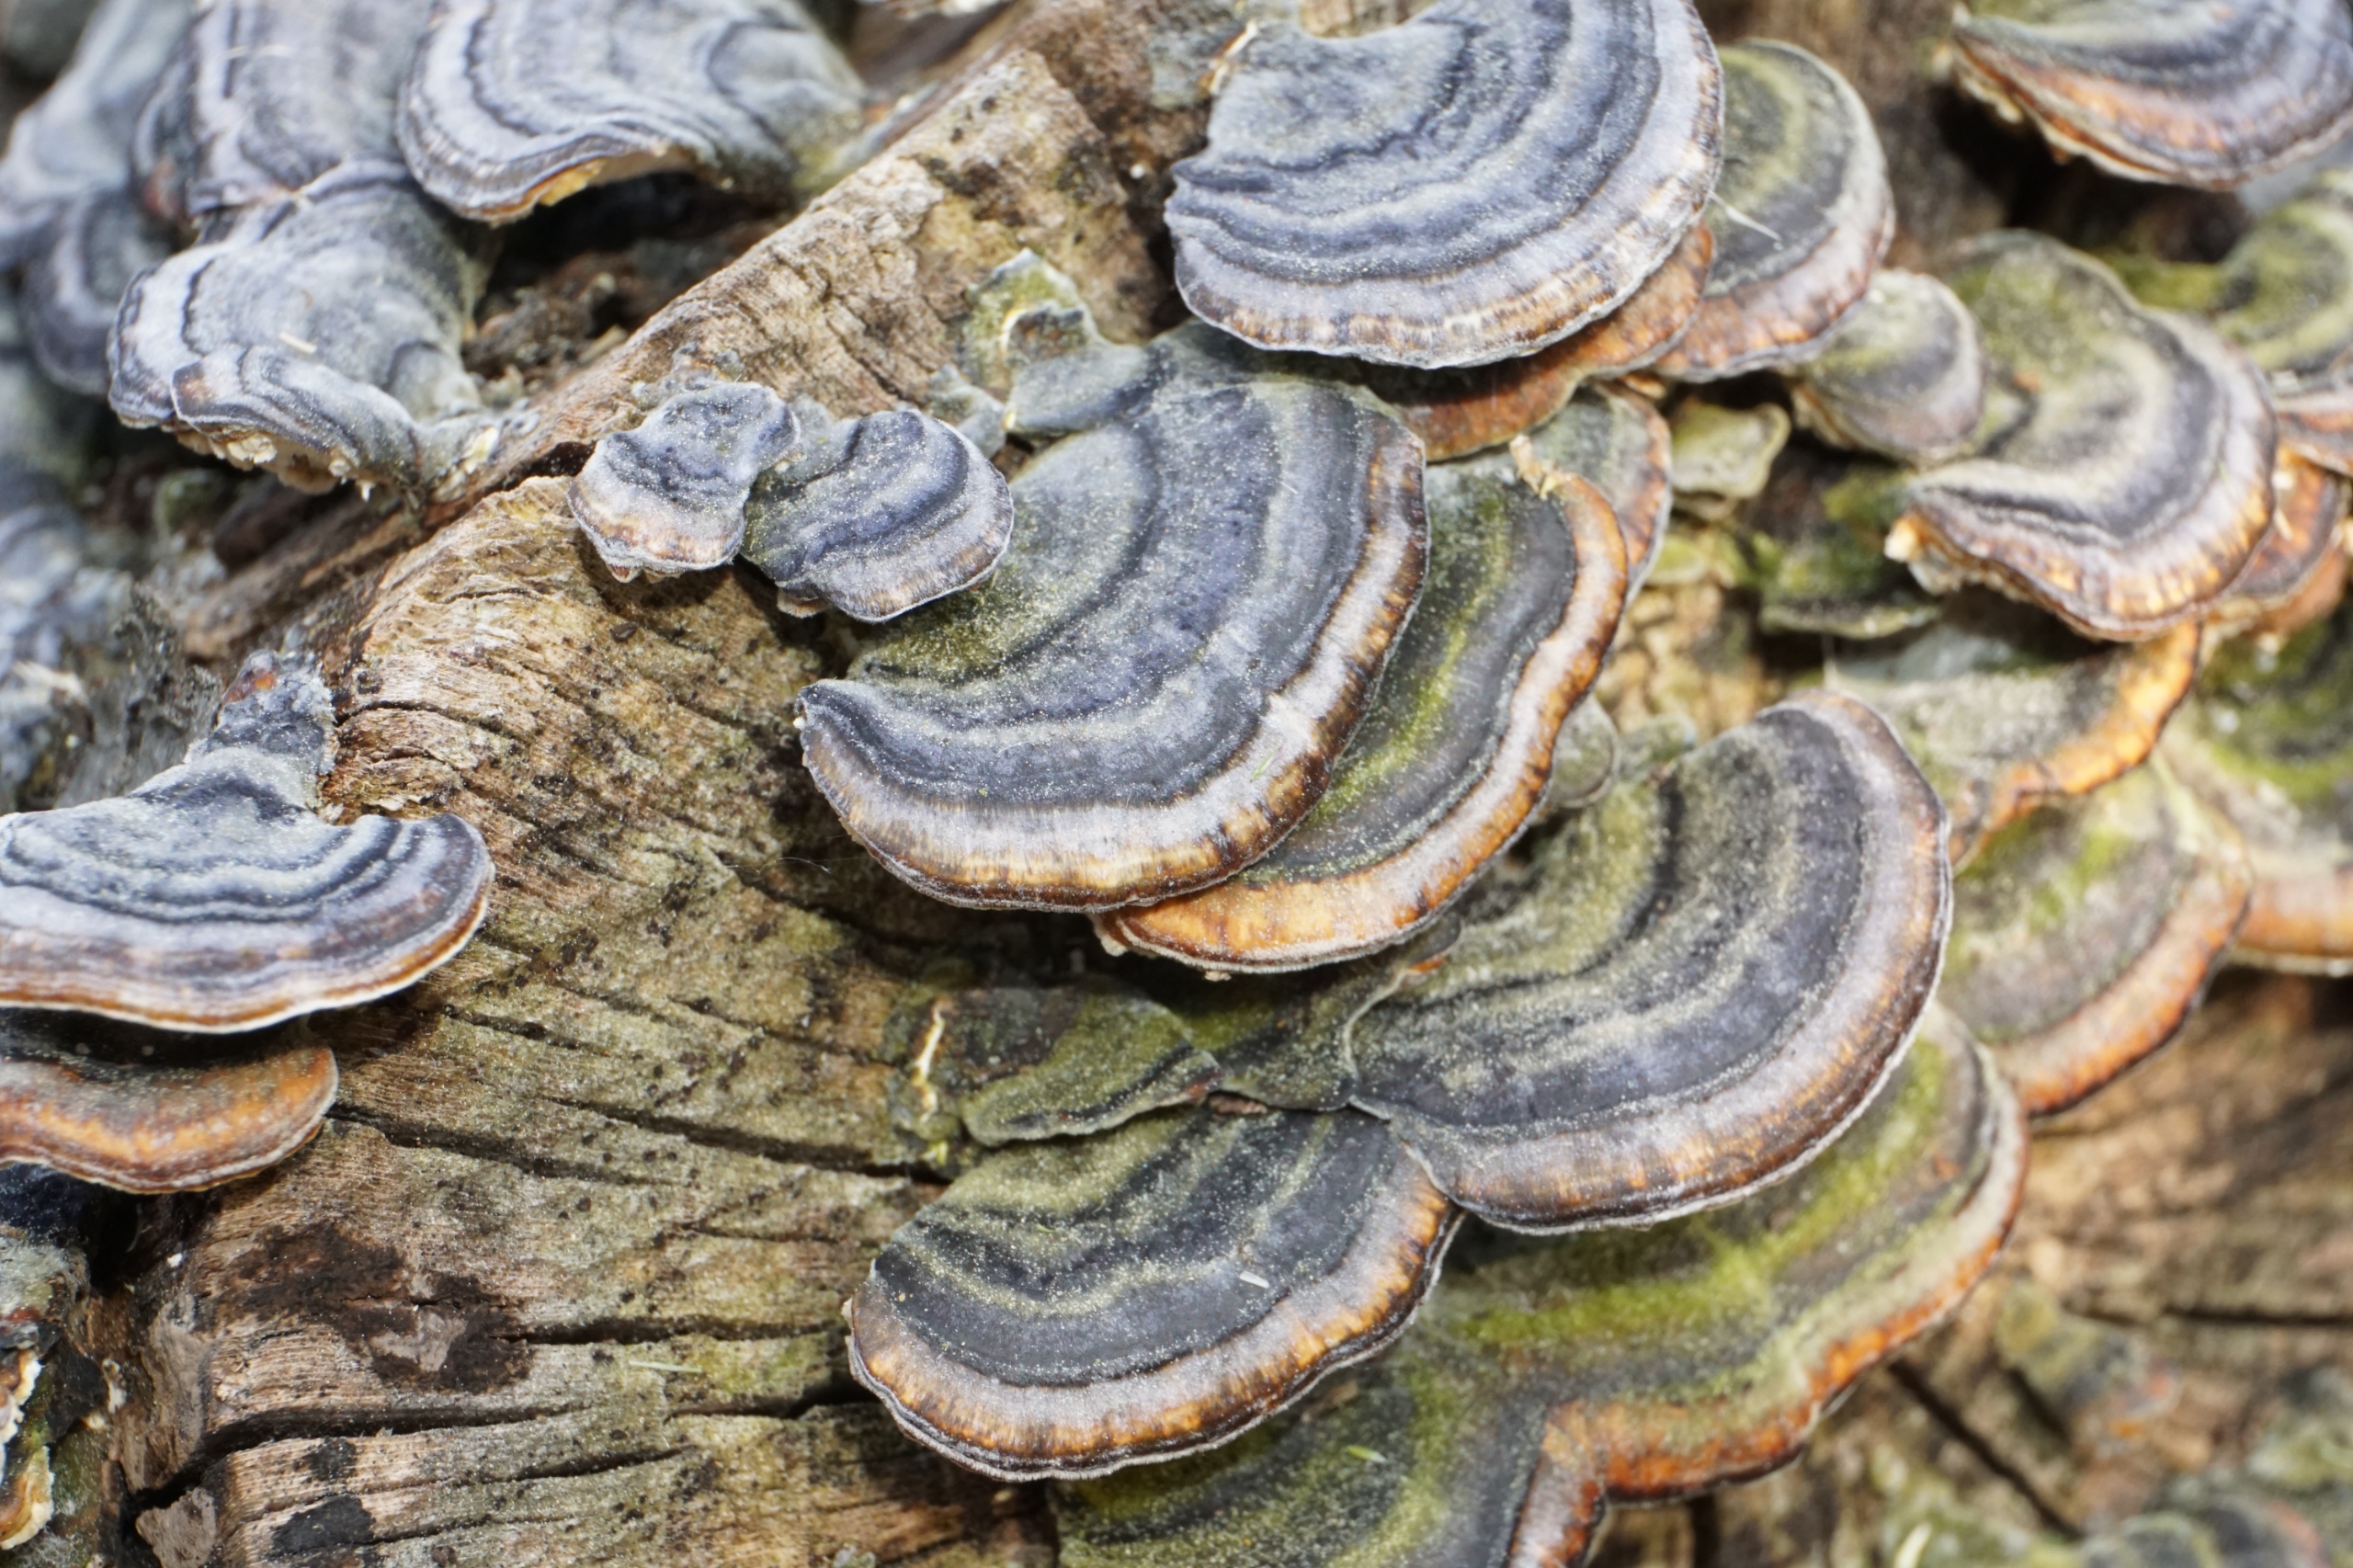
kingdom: Fungi
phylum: Basidiomycota
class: Agaricomycetes
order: Polyporales
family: Polyporaceae
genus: Trametes
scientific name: Trametes versicolor
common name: Broget læderporesvamp
